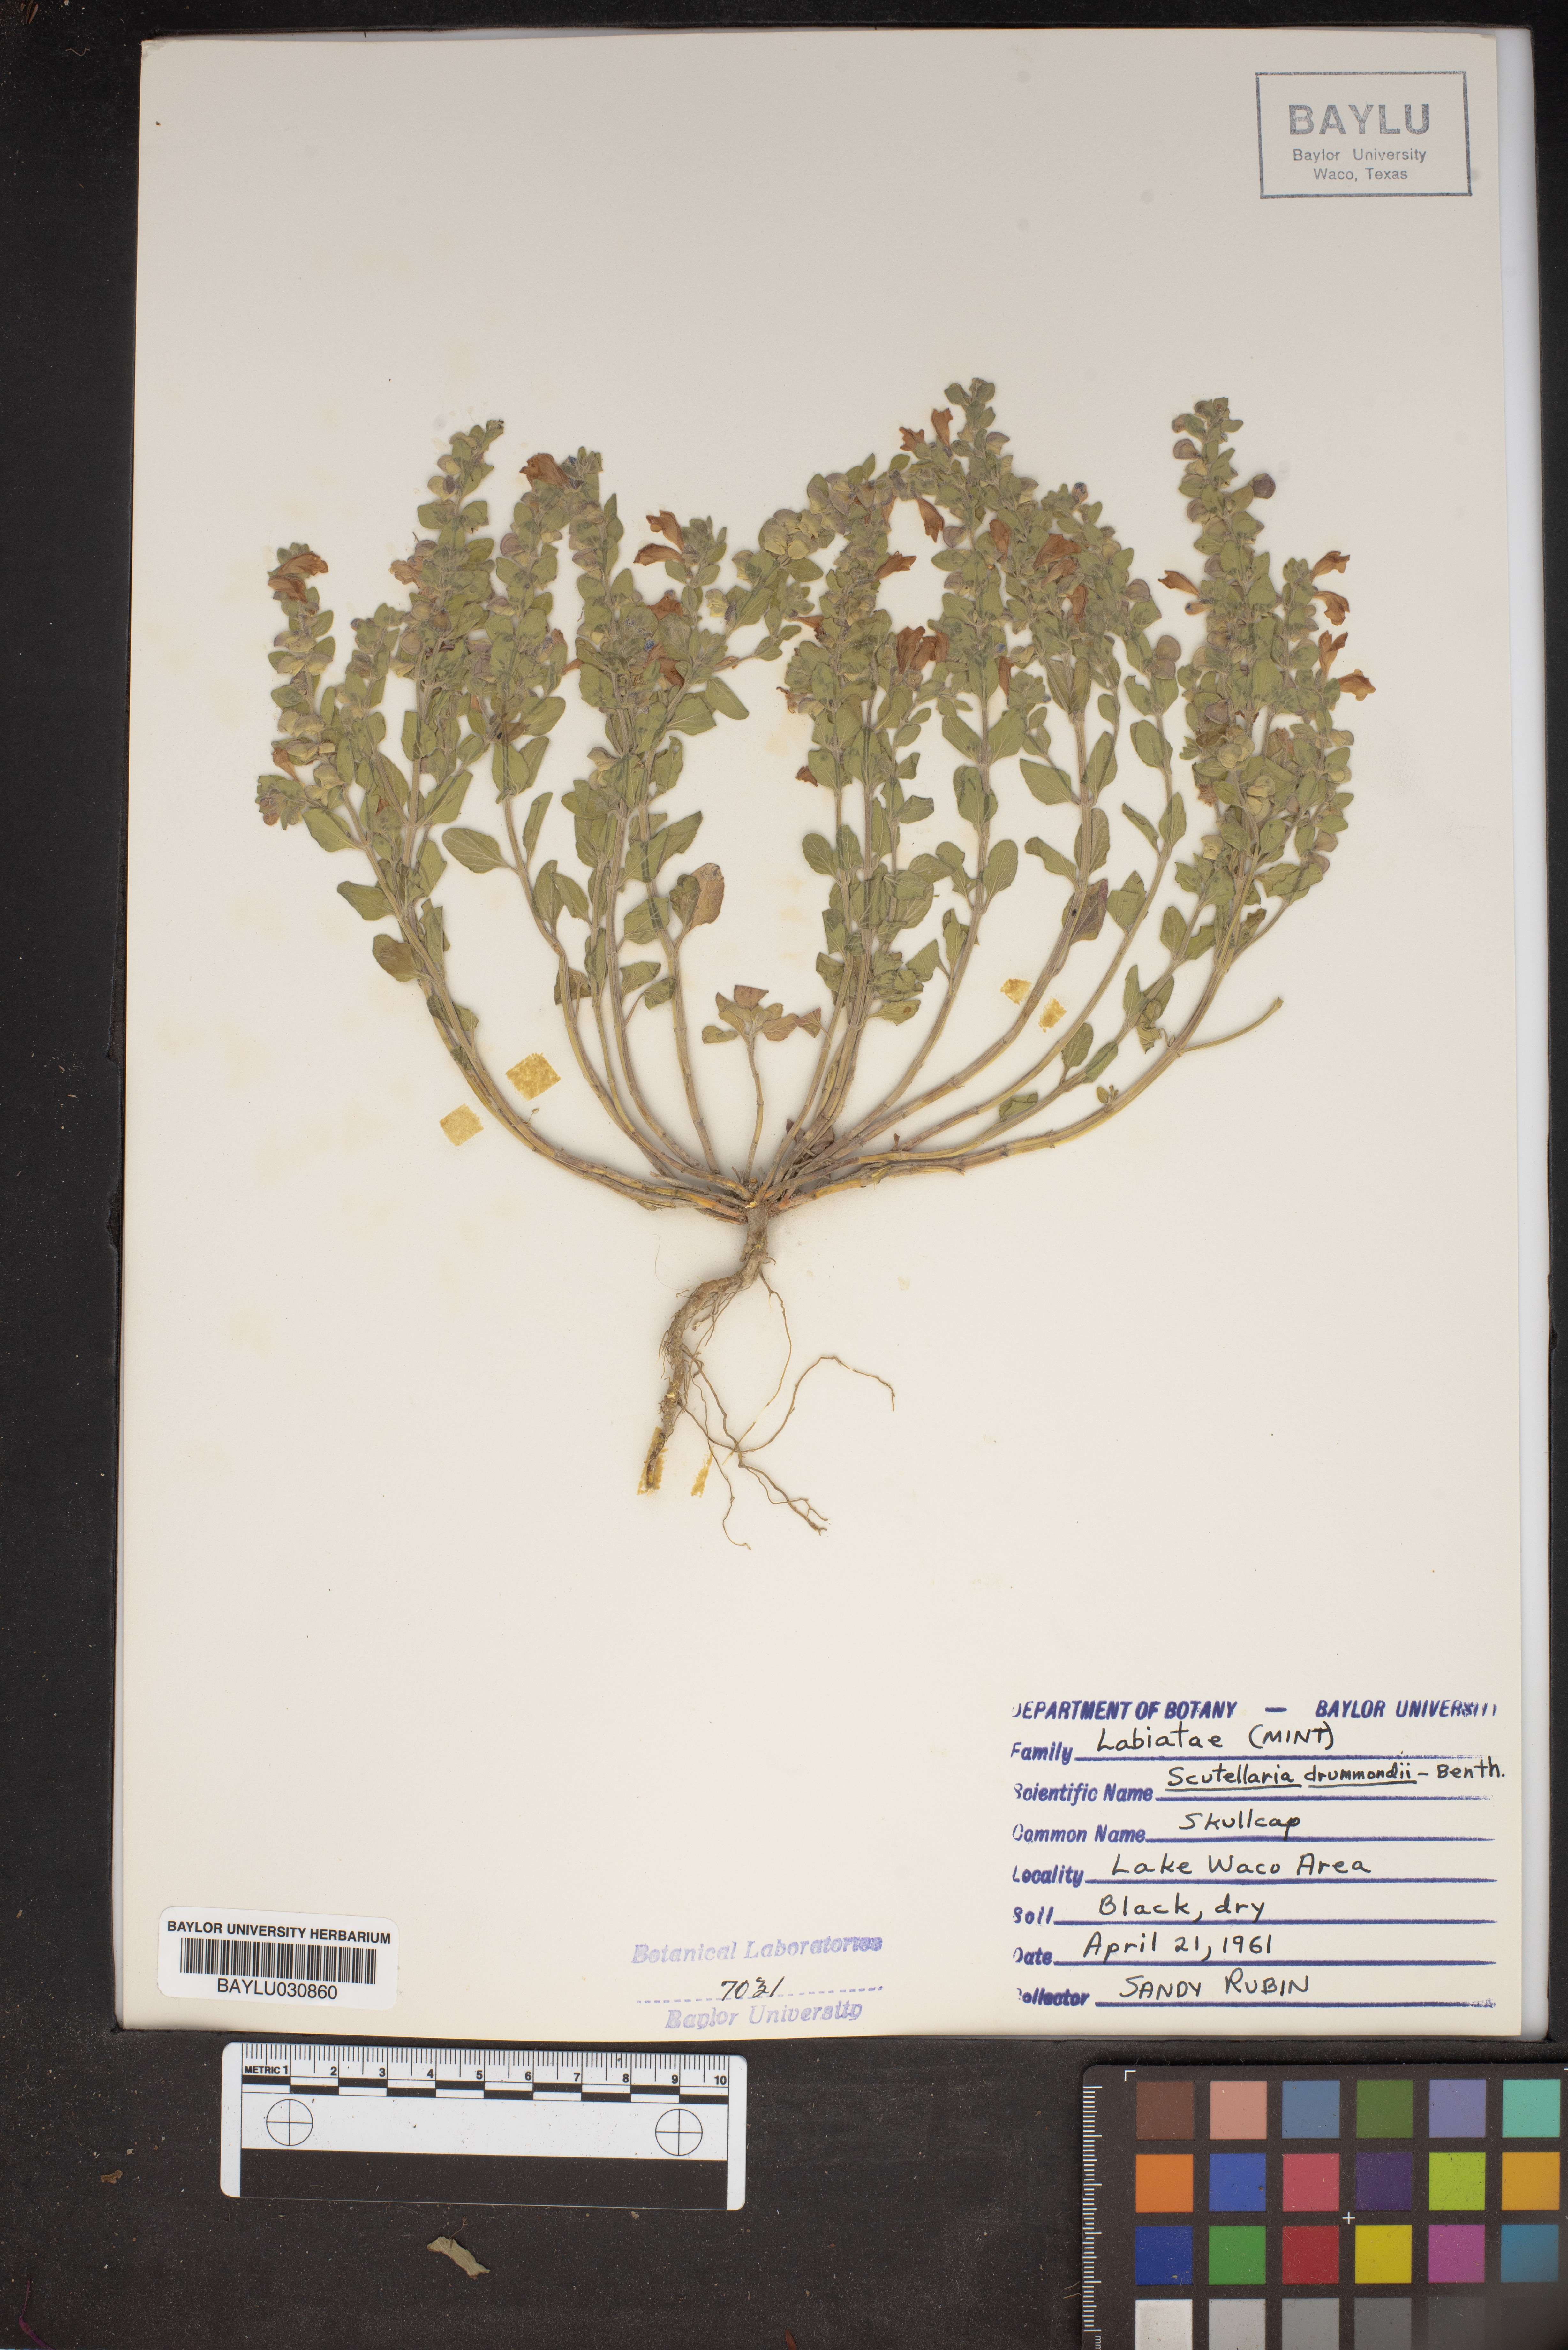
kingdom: Plantae
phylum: Tracheophyta
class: Magnoliopsida
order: Lamiales
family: Lamiaceae
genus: Scutellaria
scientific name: Scutellaria drummondii
